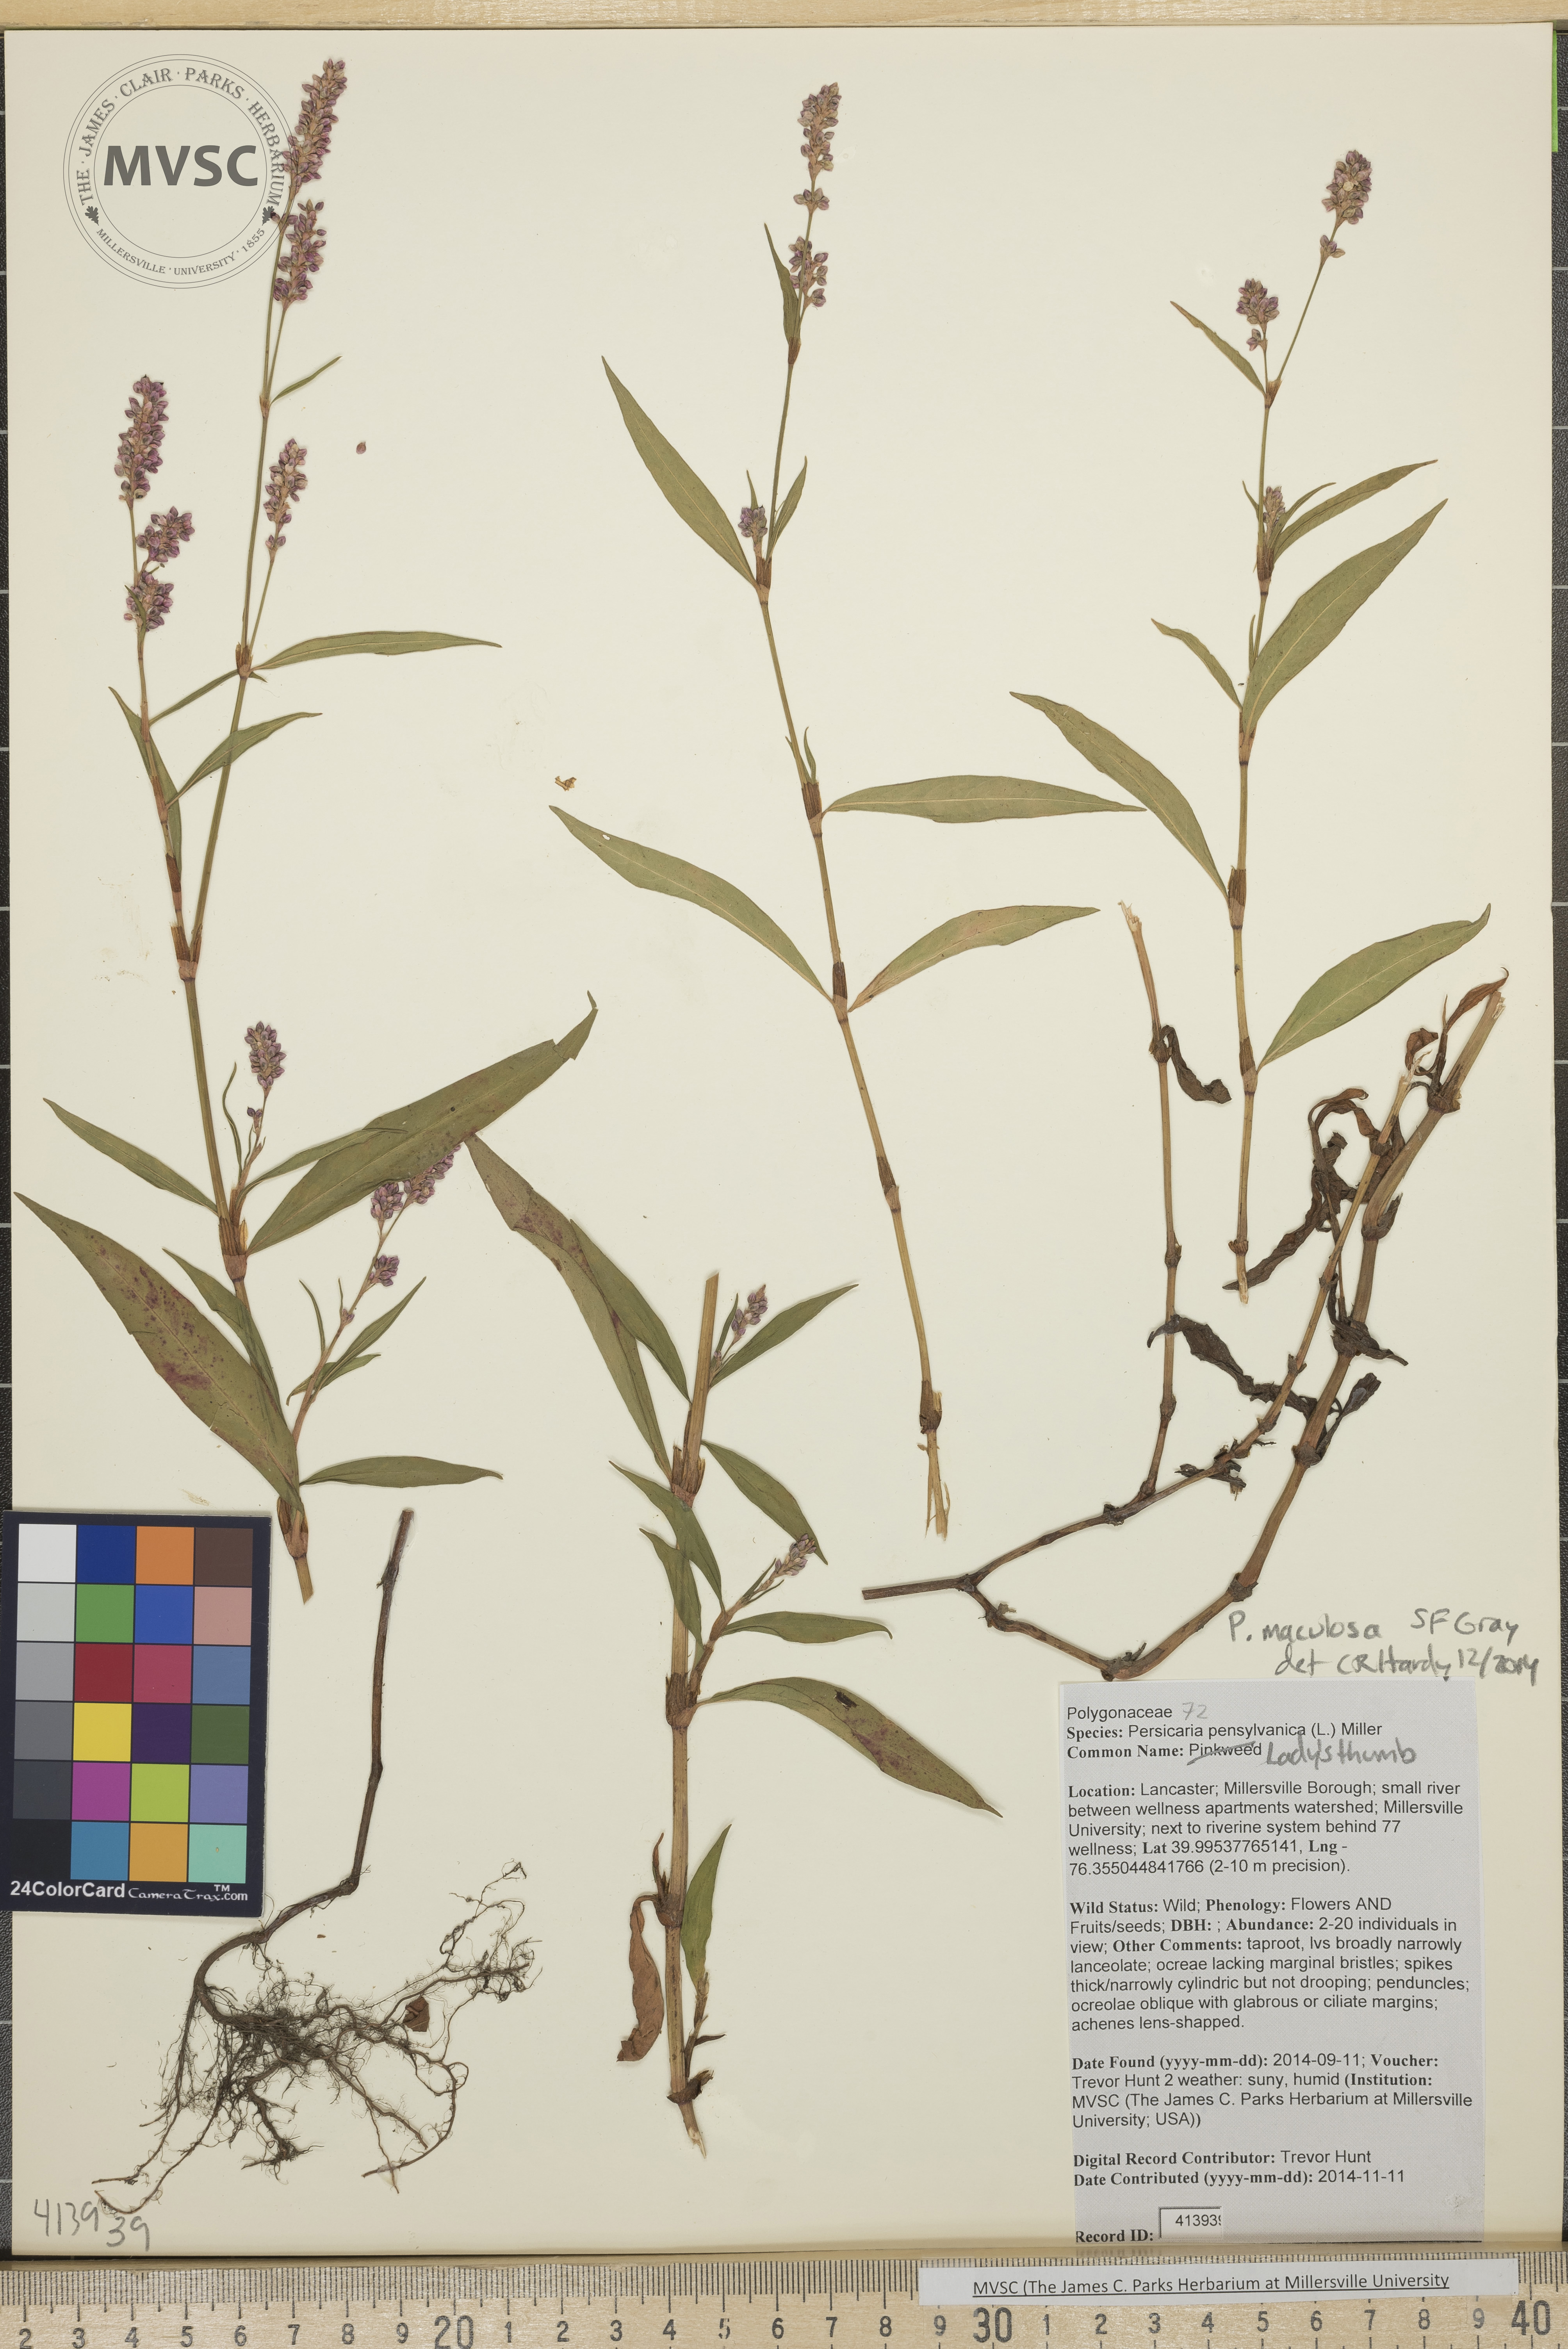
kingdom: Plantae
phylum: Tracheophyta
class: Magnoliopsida
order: Caryophyllales
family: Polygonaceae
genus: Persicaria
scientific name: Persicaria maculosa
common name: Lady's-thumb
